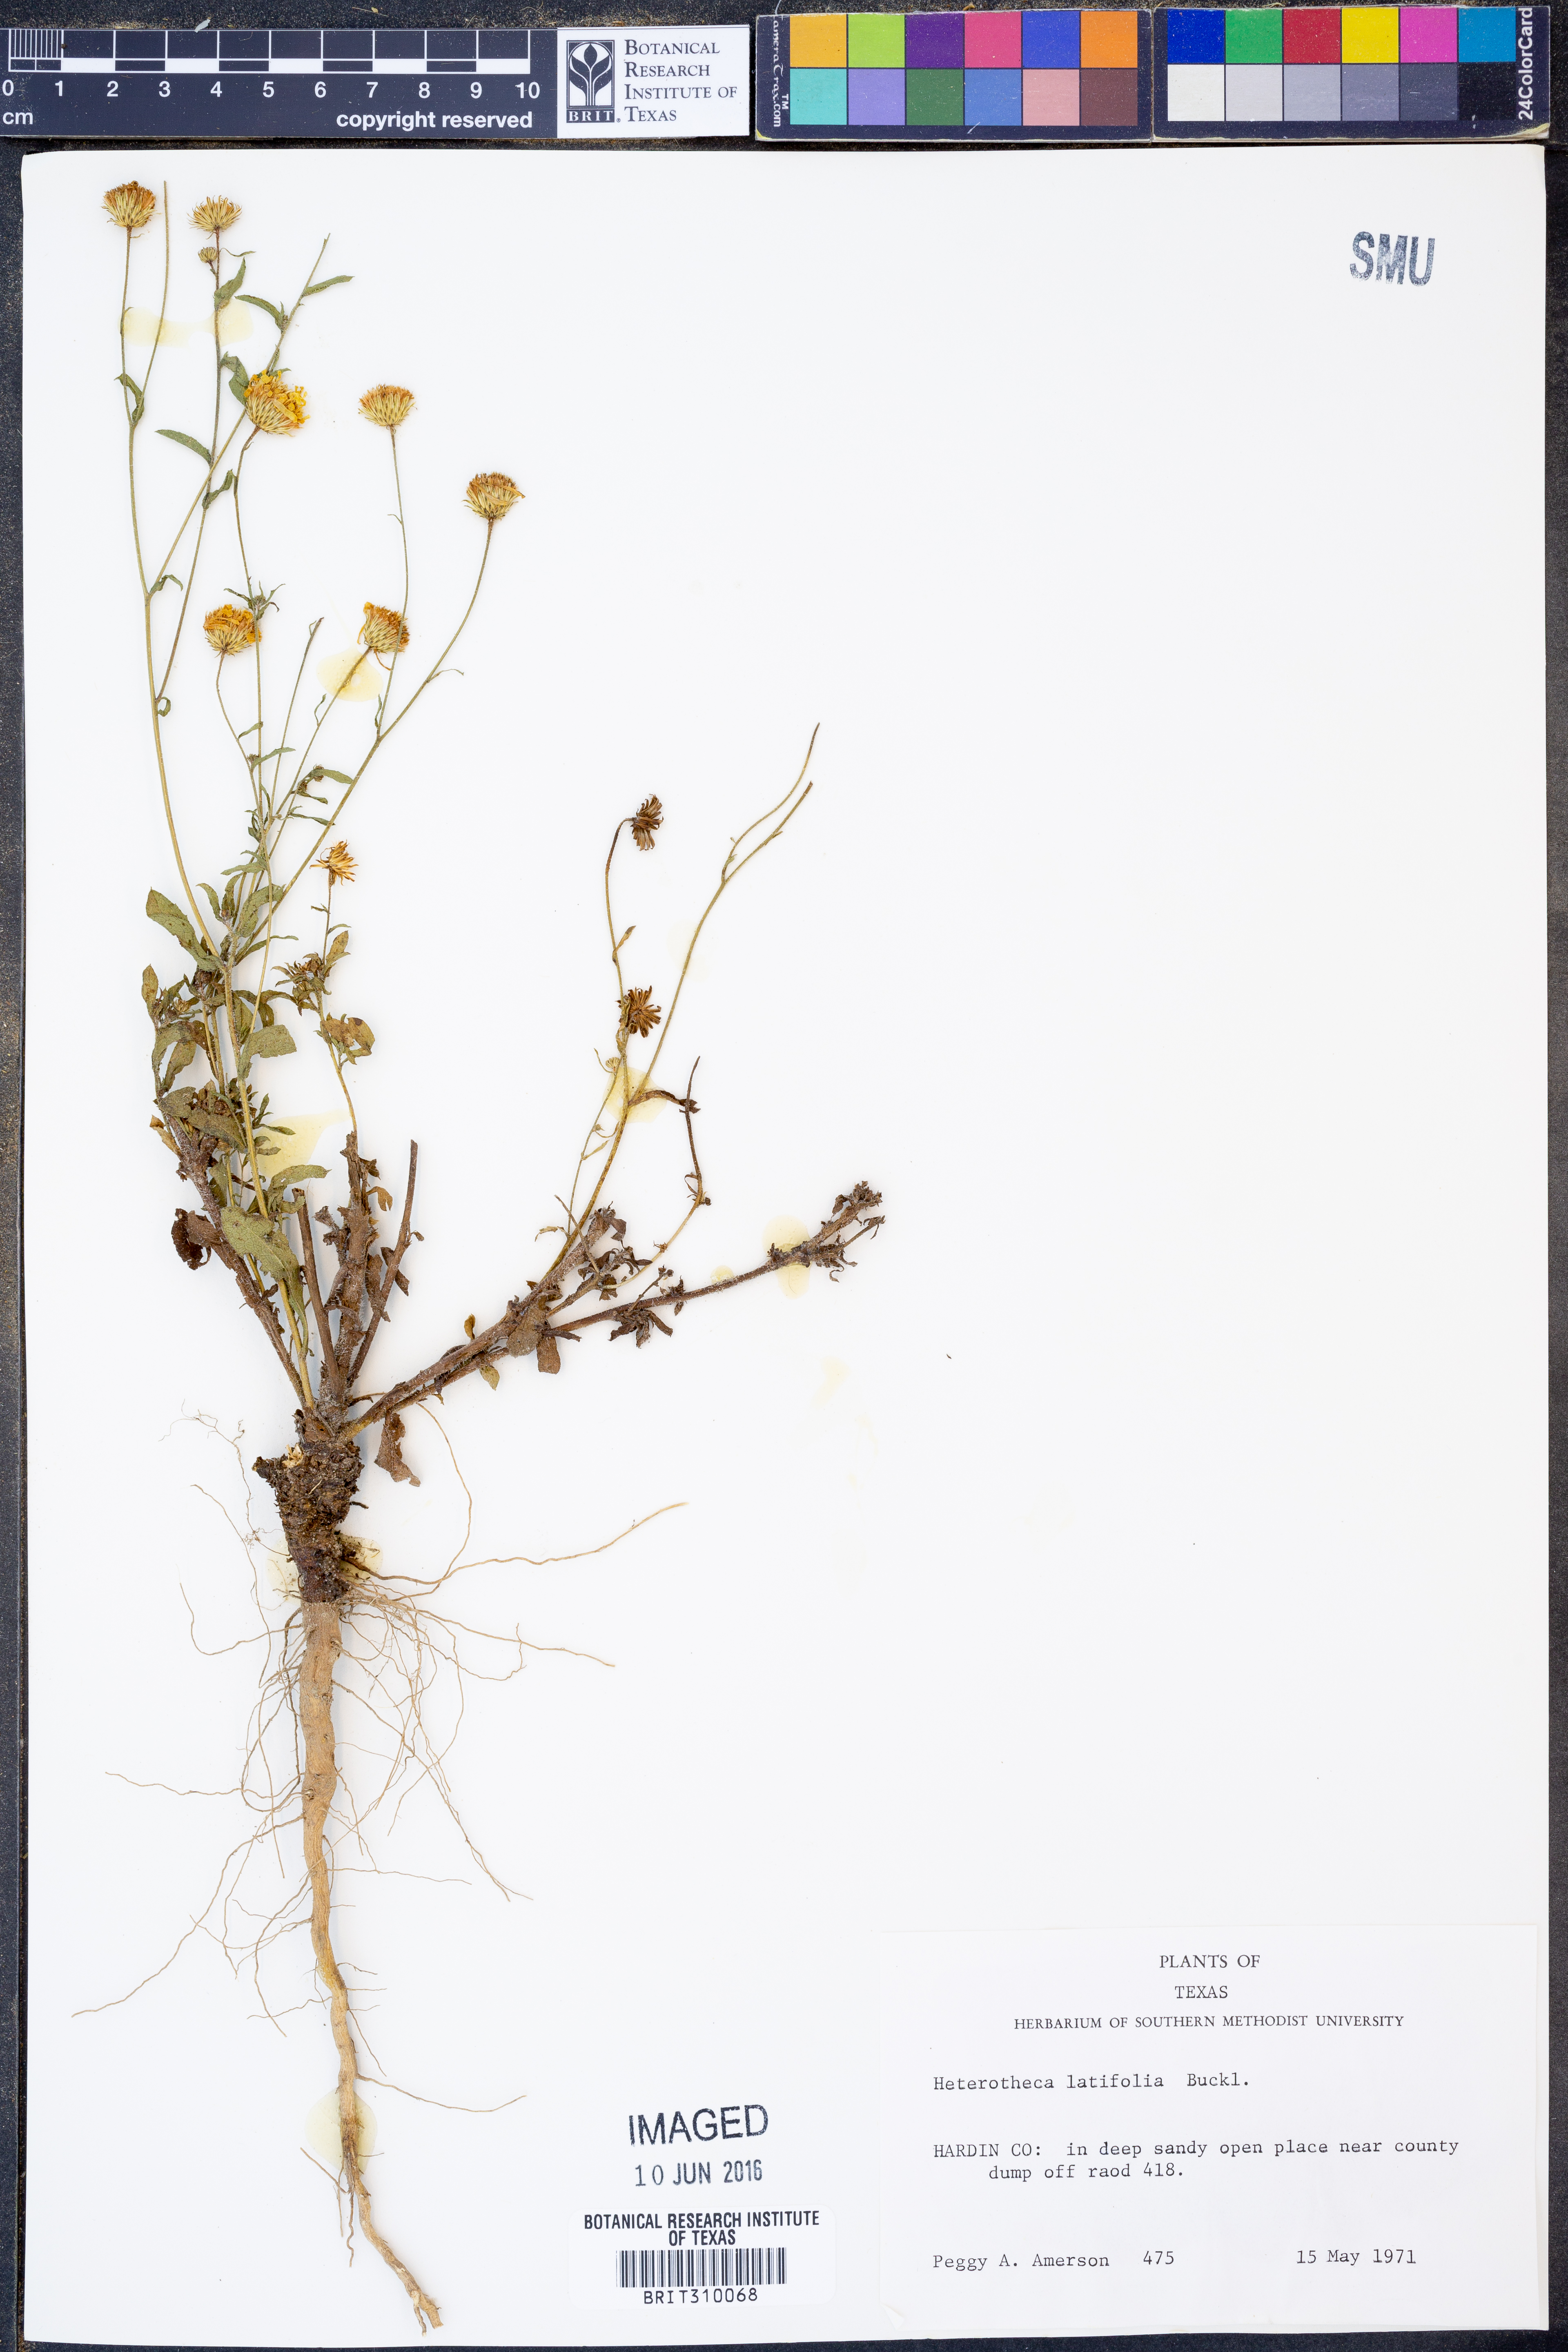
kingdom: Plantae
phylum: Tracheophyta
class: Magnoliopsida
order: Asterales
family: Asteraceae
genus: Heterotheca
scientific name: Heterotheca subaxillaris
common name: Camphorweed
